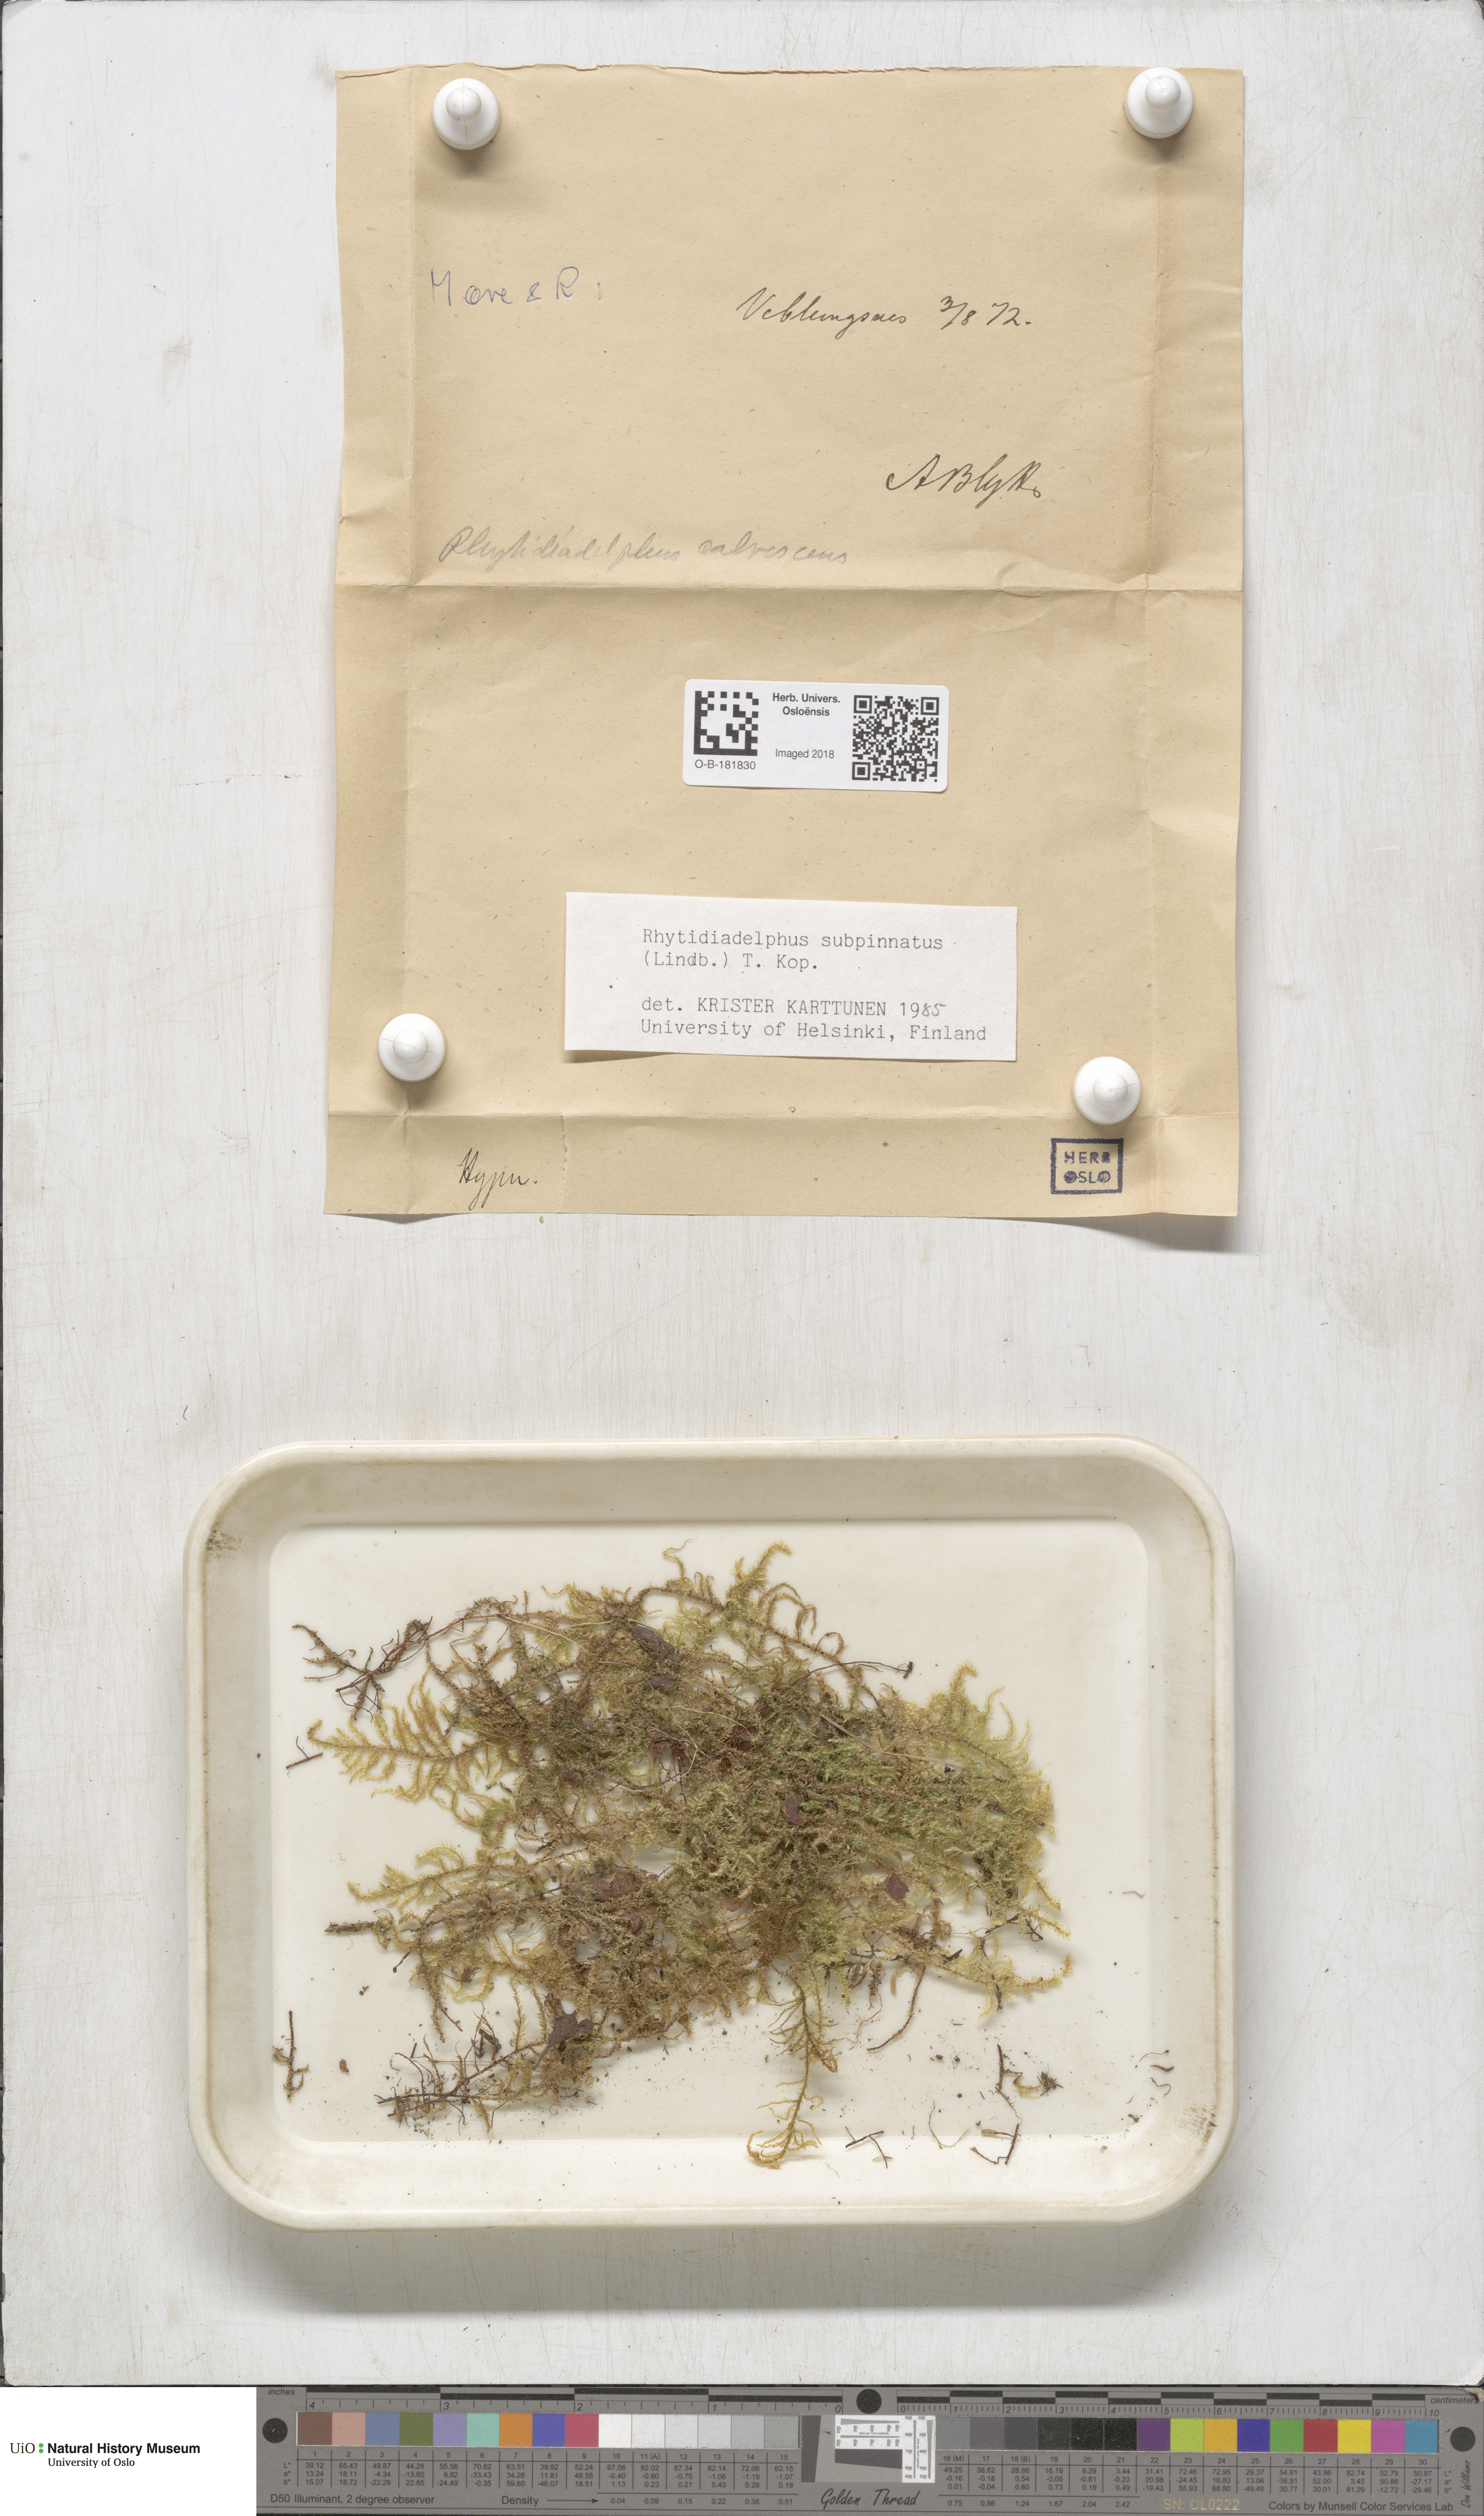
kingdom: Plantae
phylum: Bryophyta
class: Bryopsida
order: Hypnales
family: Hylocomiaceae
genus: Rhytidiadelphus
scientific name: Rhytidiadelphus subpinnatus
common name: Subpinnate gooseneck moss
